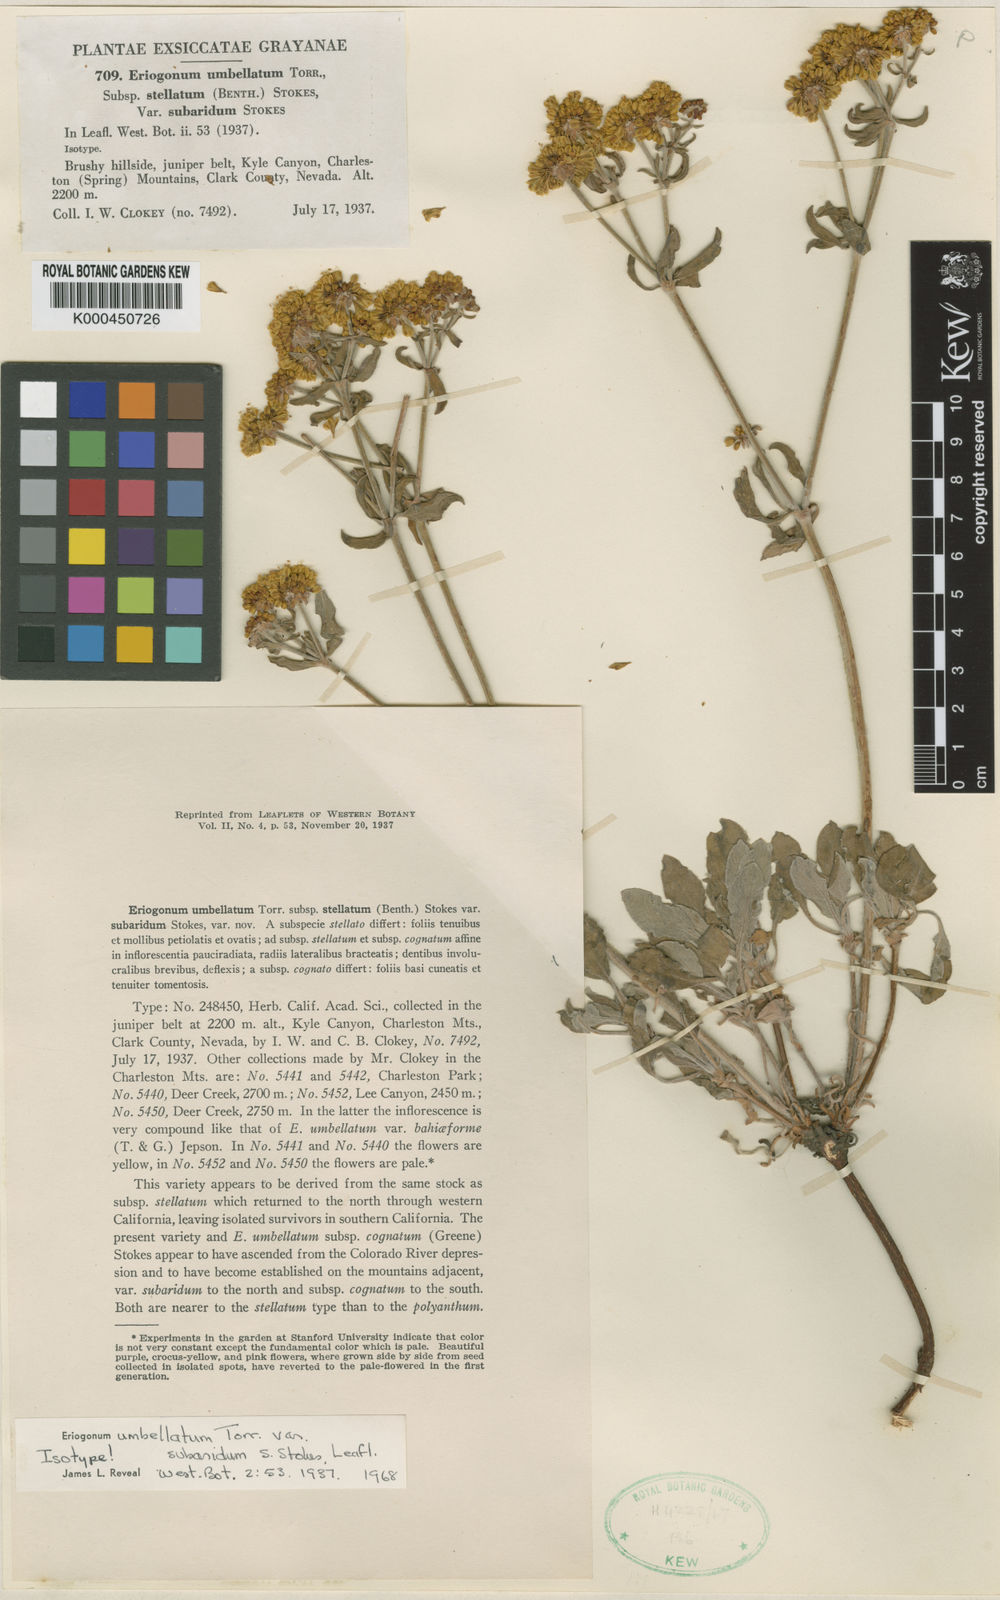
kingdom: Plantae
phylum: Tracheophyta
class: Magnoliopsida
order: Caryophyllales
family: Polygonaceae
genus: Eriogonum
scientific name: Eriogonum umbellatum
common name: Sulfur-buckwheat
